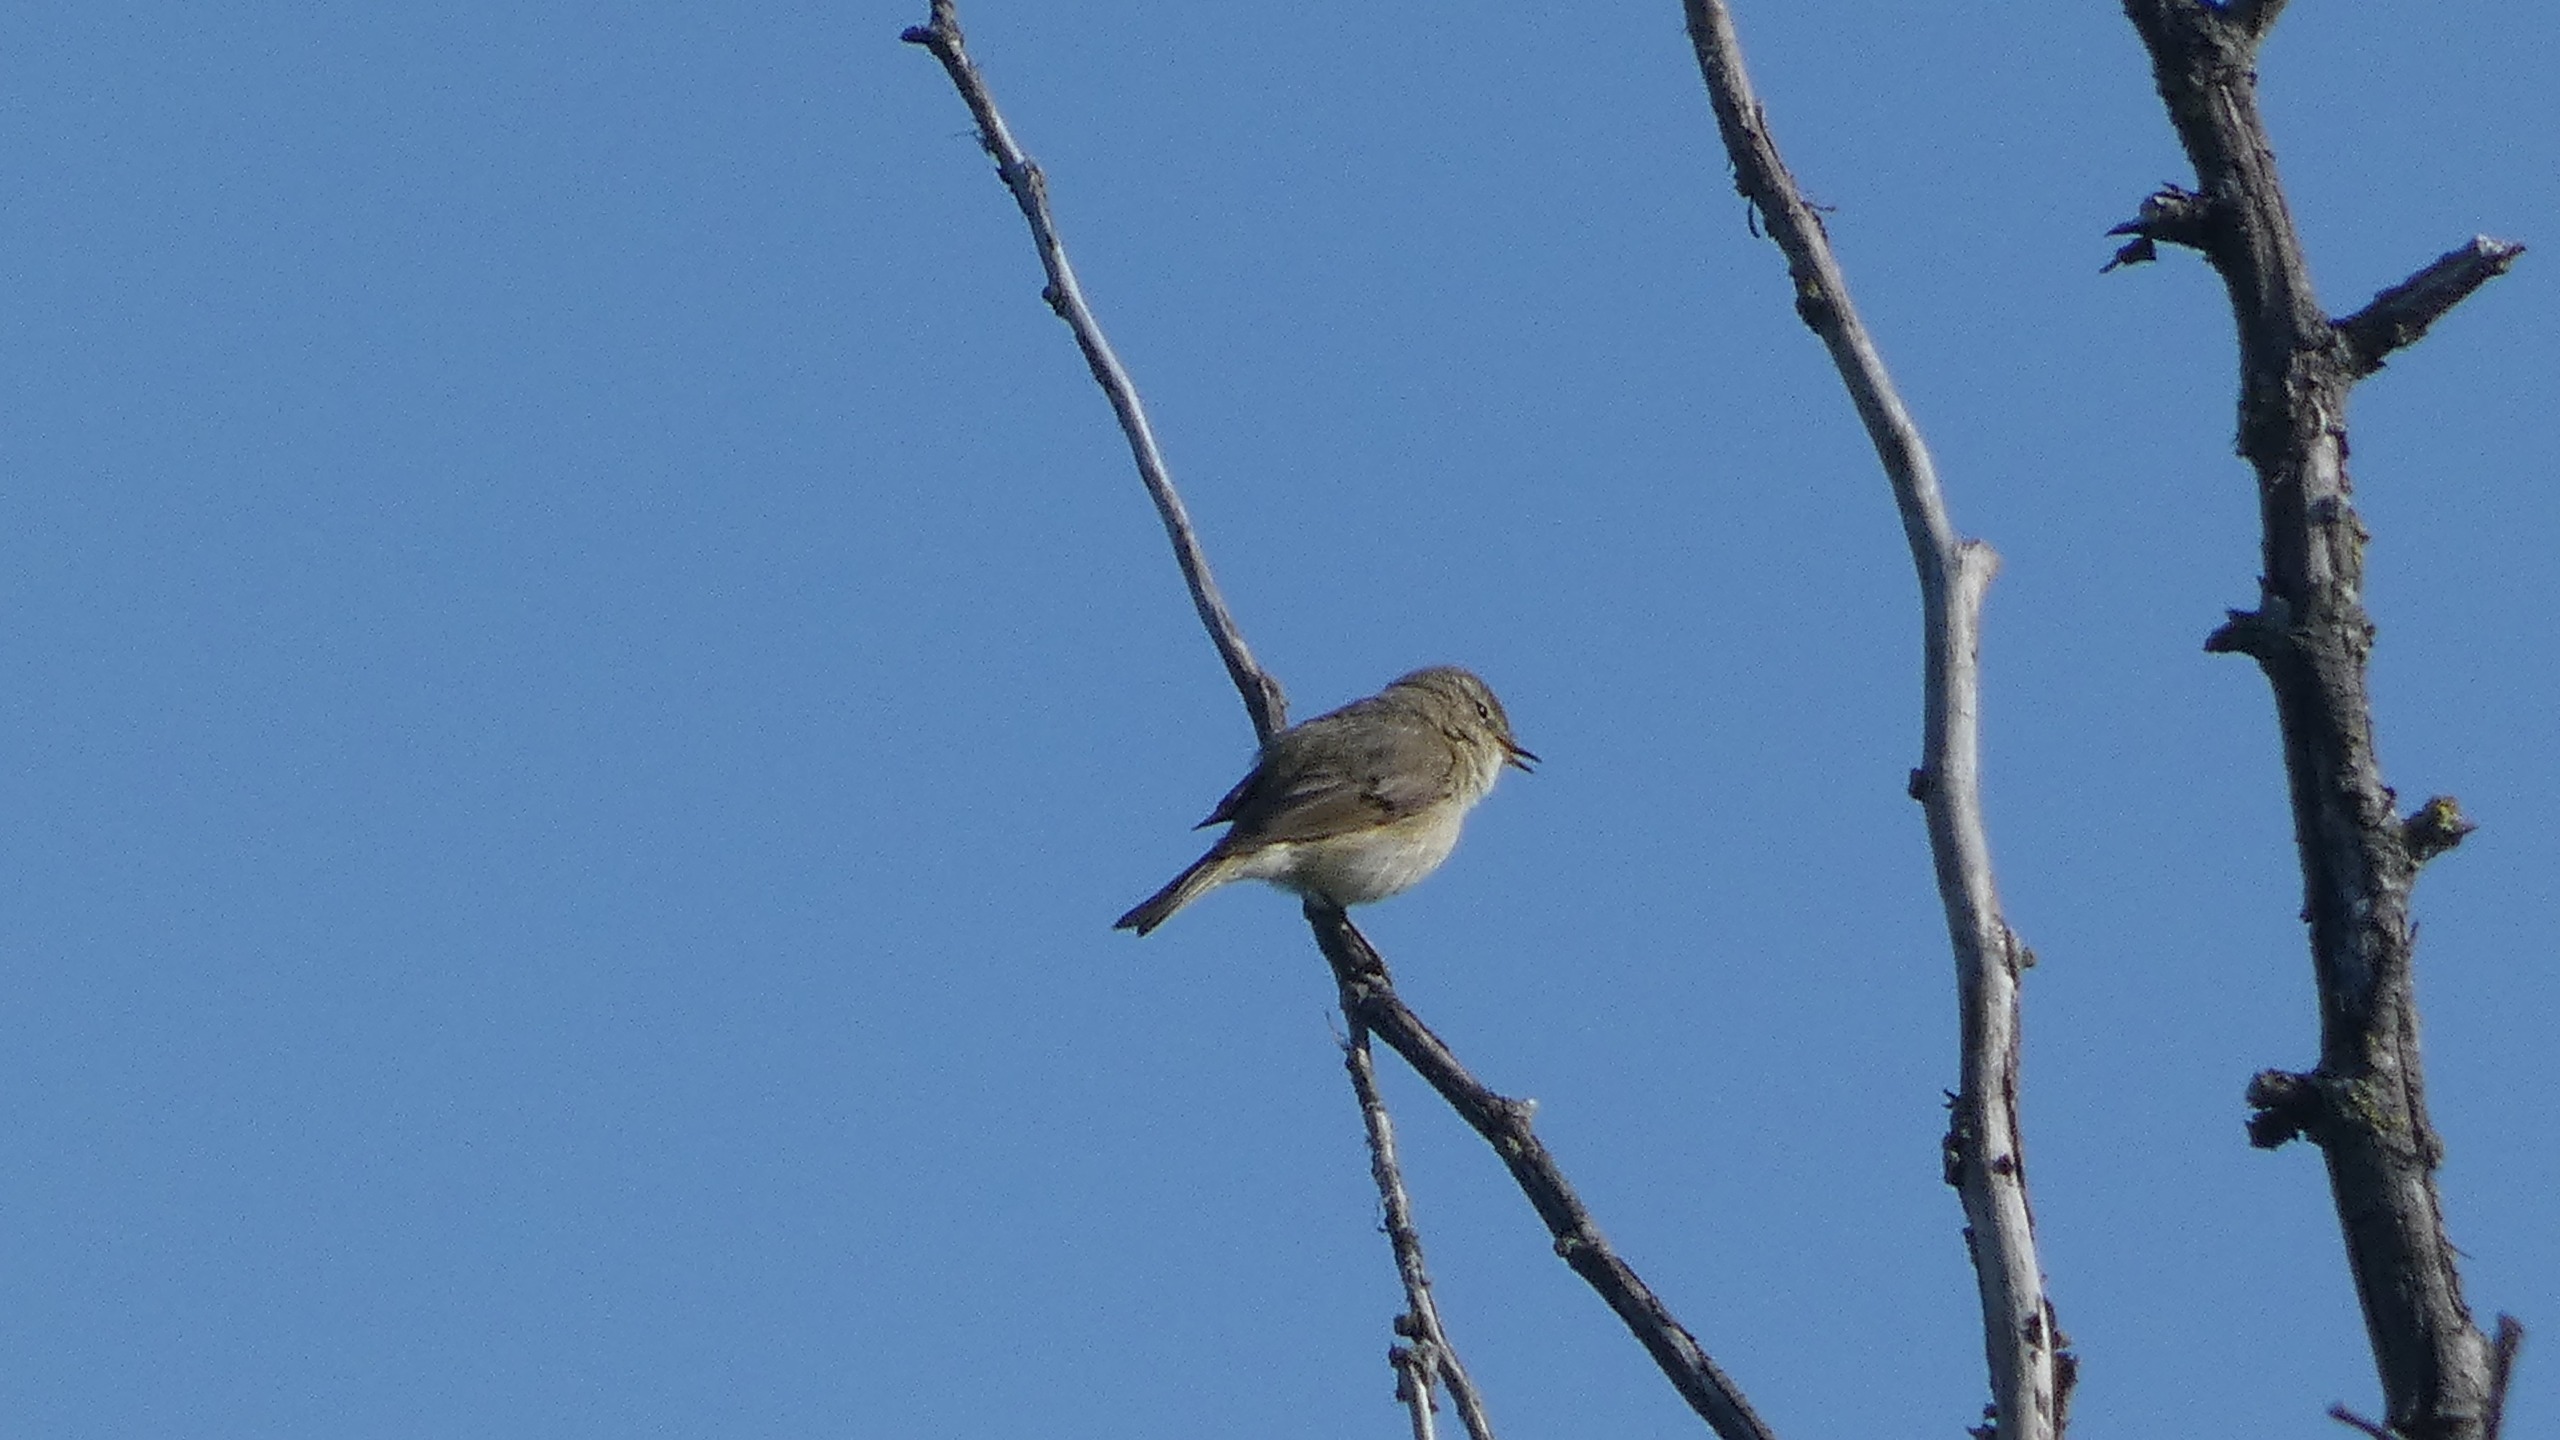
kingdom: Animalia
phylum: Chordata
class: Aves
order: Passeriformes
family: Phylloscopidae
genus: Phylloscopus
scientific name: Phylloscopus collybita
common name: Gransanger
